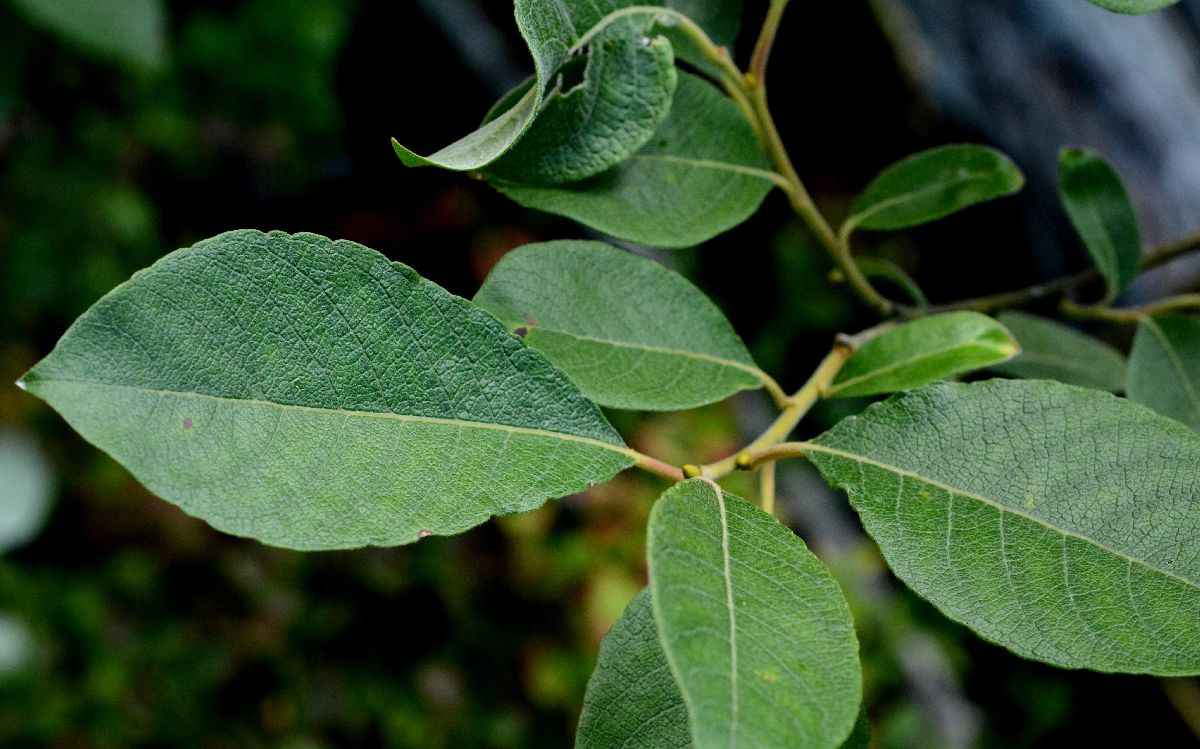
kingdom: Plantae
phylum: Tracheophyta
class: Magnoliopsida
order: Malpighiales
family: Salicaceae
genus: Salix
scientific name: Salix caprea
